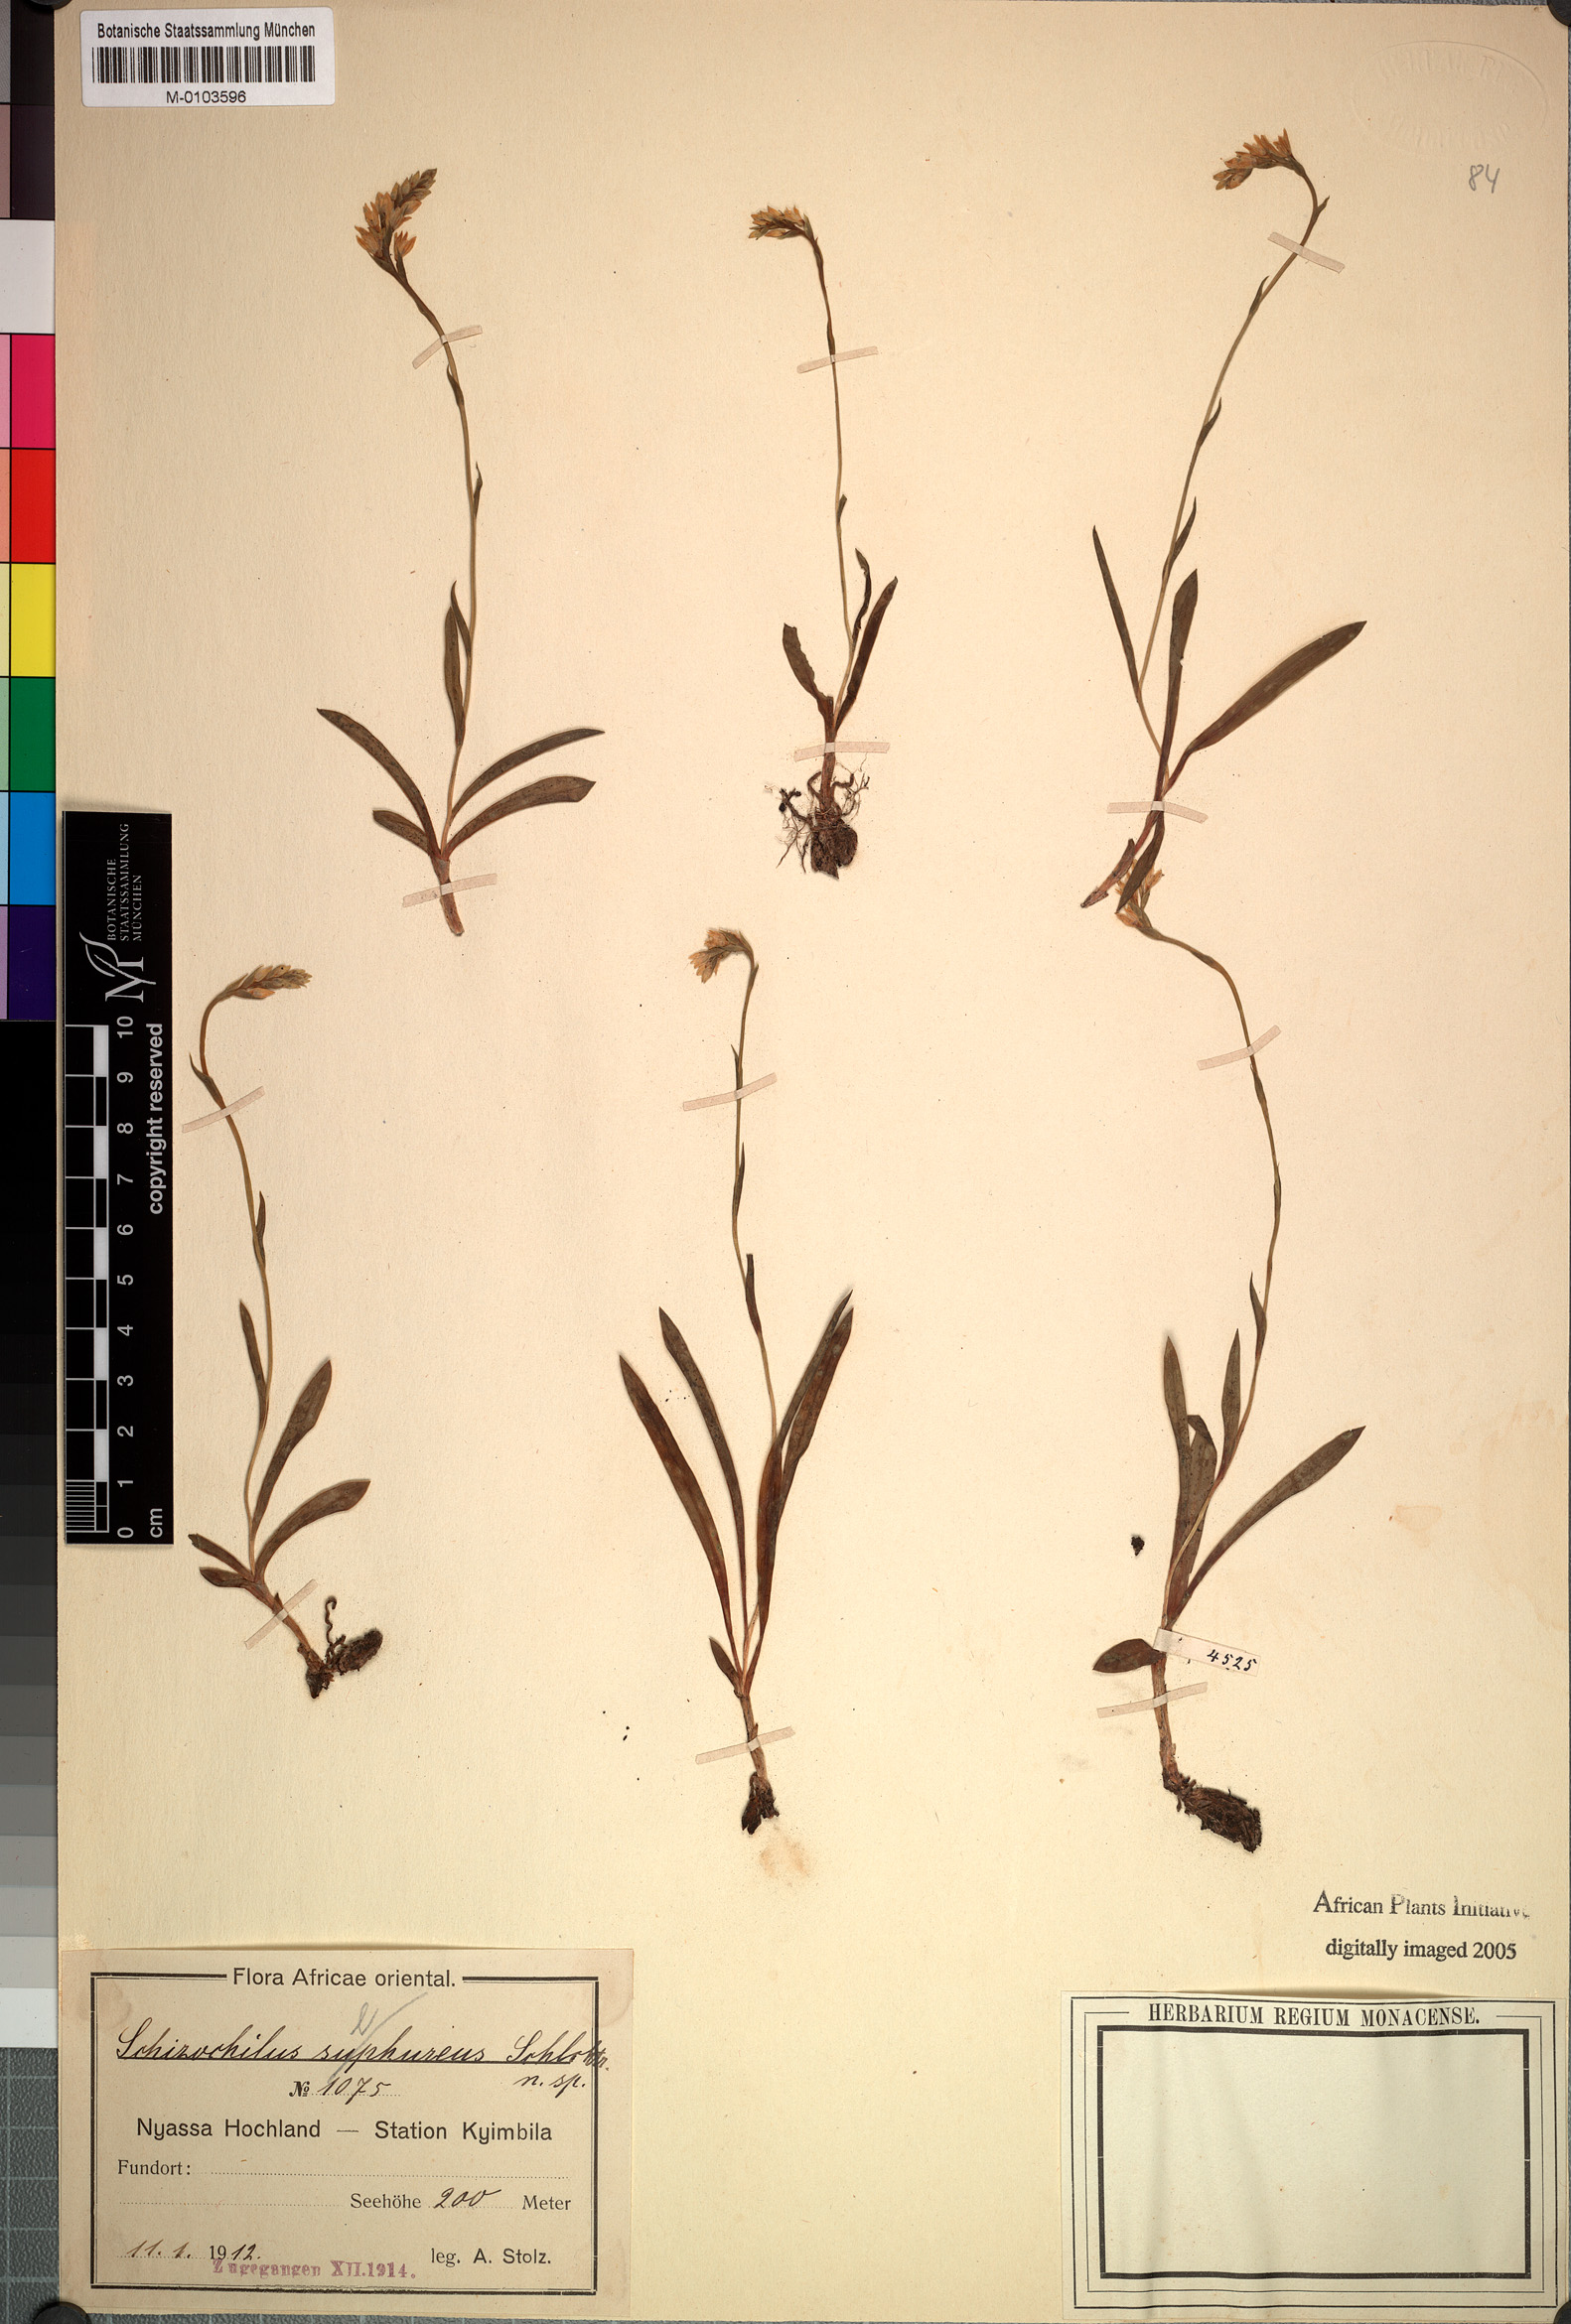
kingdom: Plantae
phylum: Tracheophyta
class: Liliopsida
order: Asparagales
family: Orchidaceae
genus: Schizochilus
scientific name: Schizochilus sulphureus
